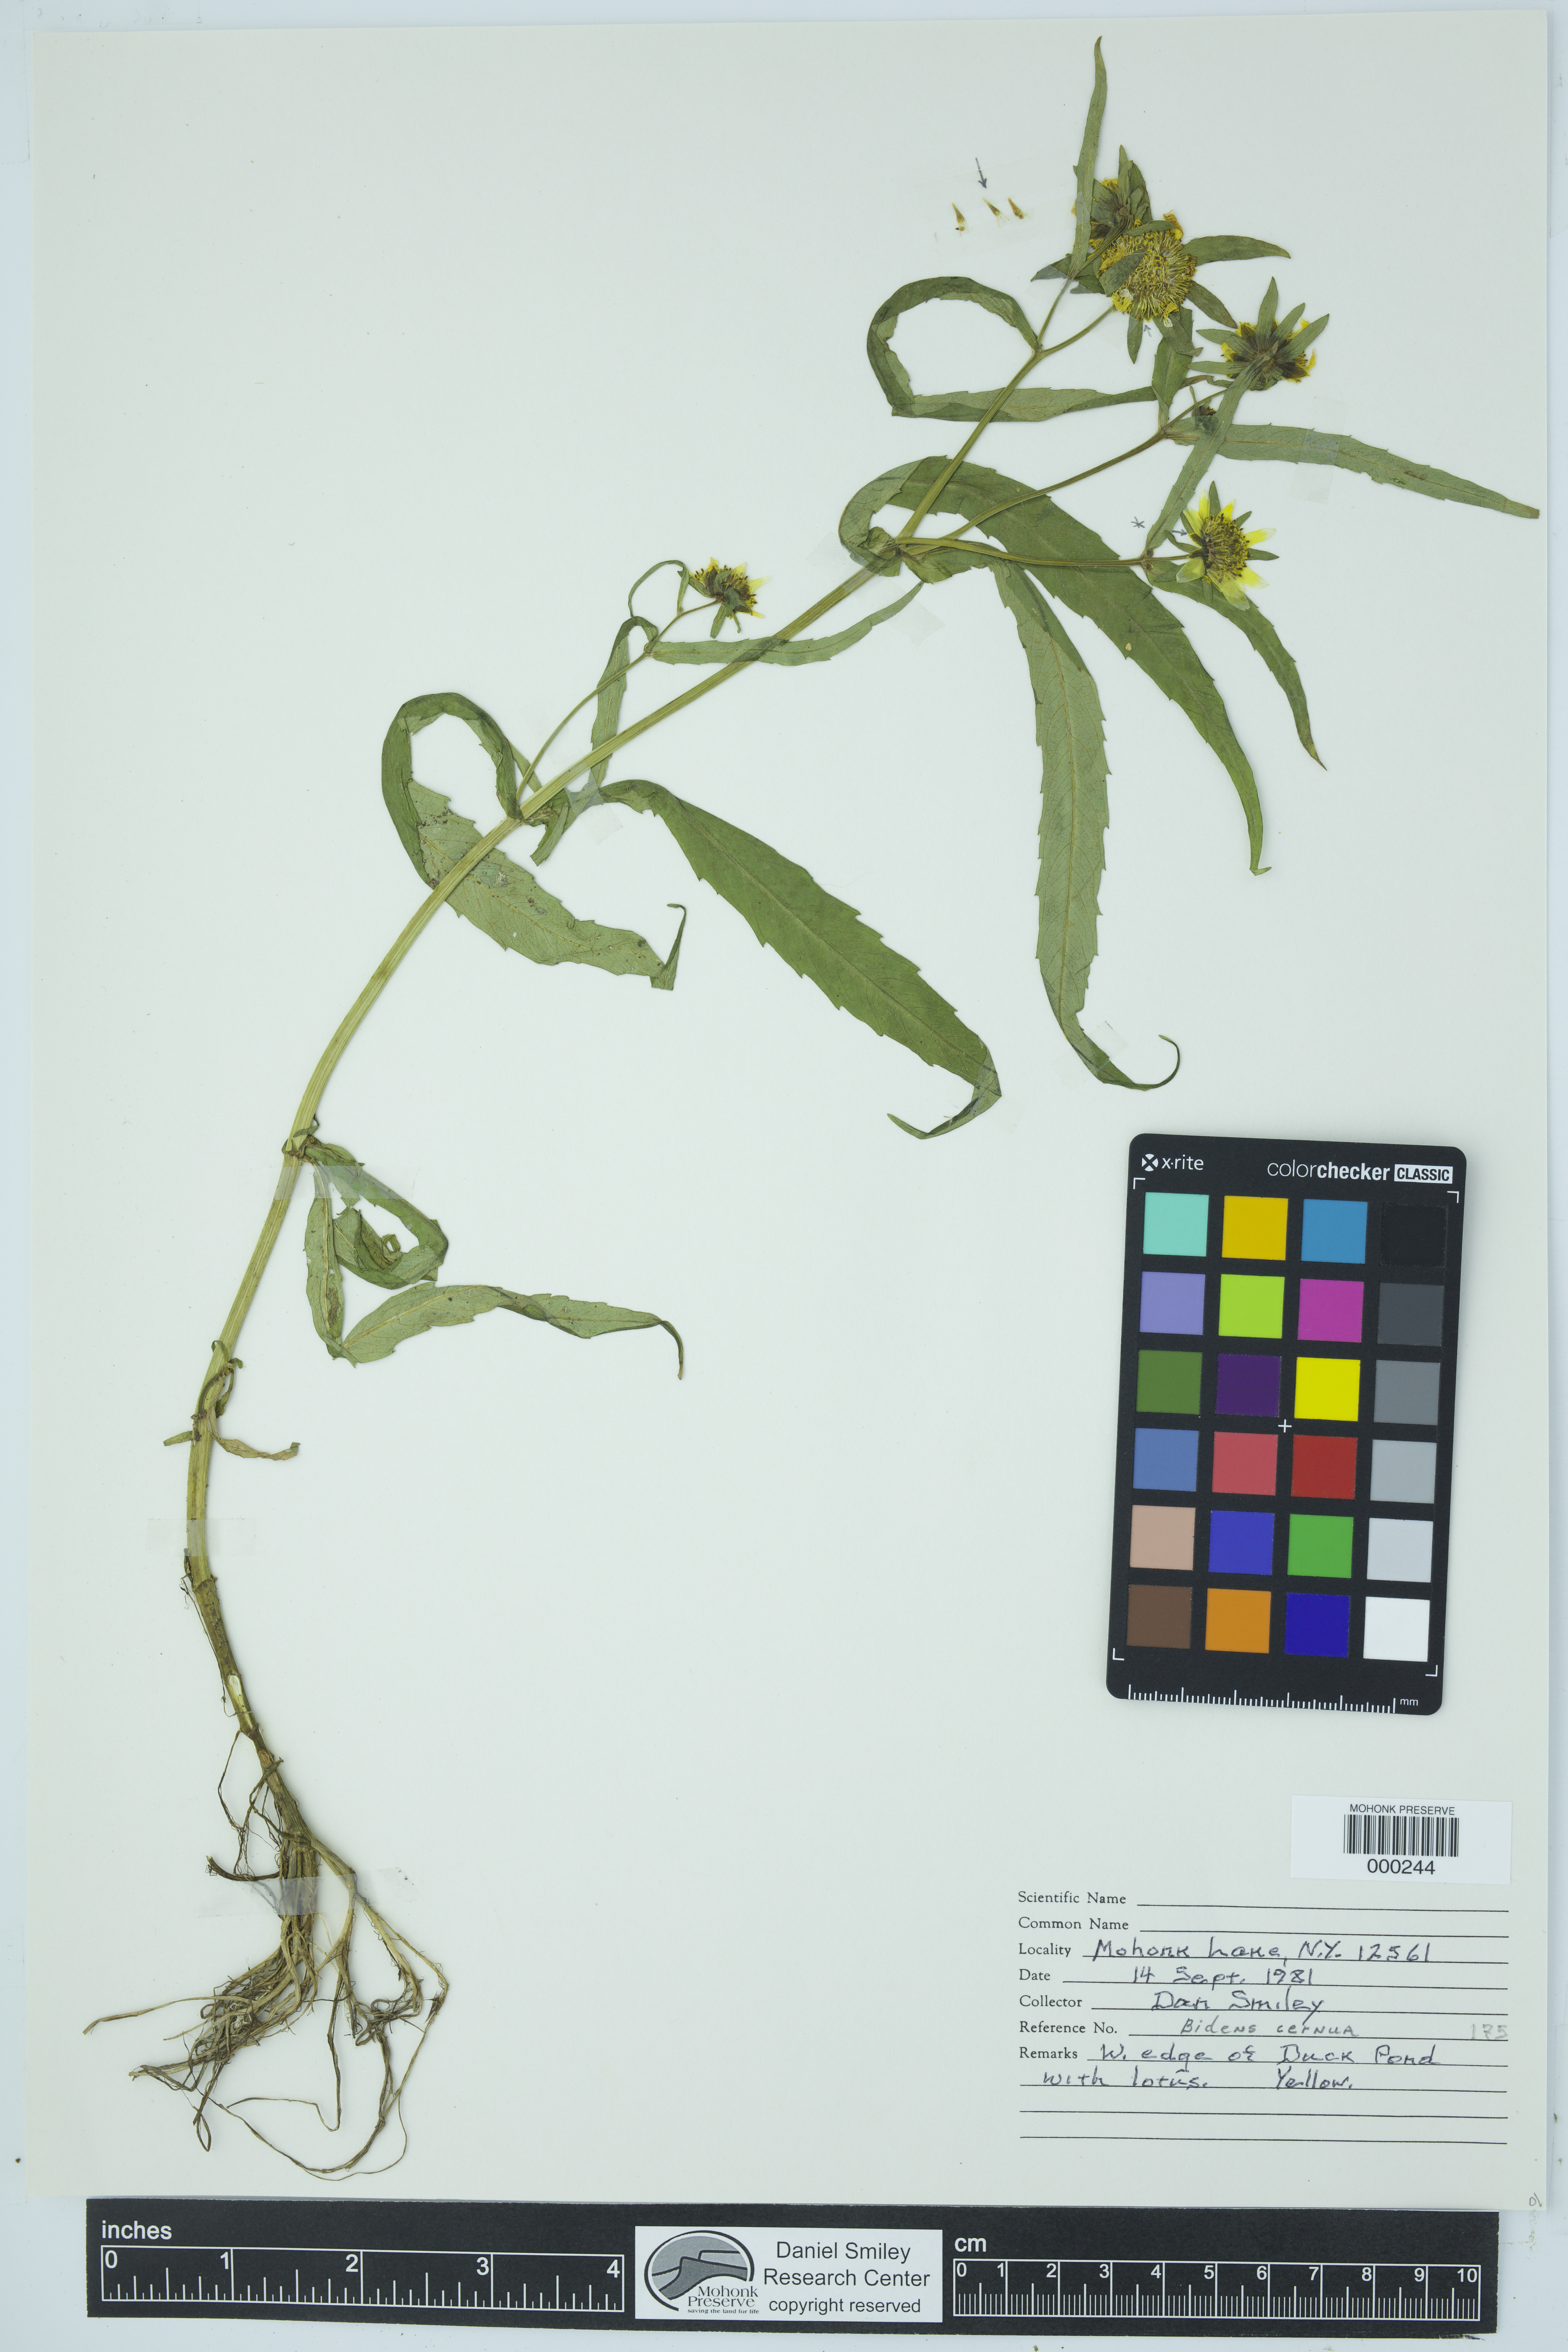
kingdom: Plantae
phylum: Tracheophyta
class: Magnoliopsida
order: Asterales
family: Asteraceae
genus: Bidens
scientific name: Bidens cernua
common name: Nodding bur-marigold
